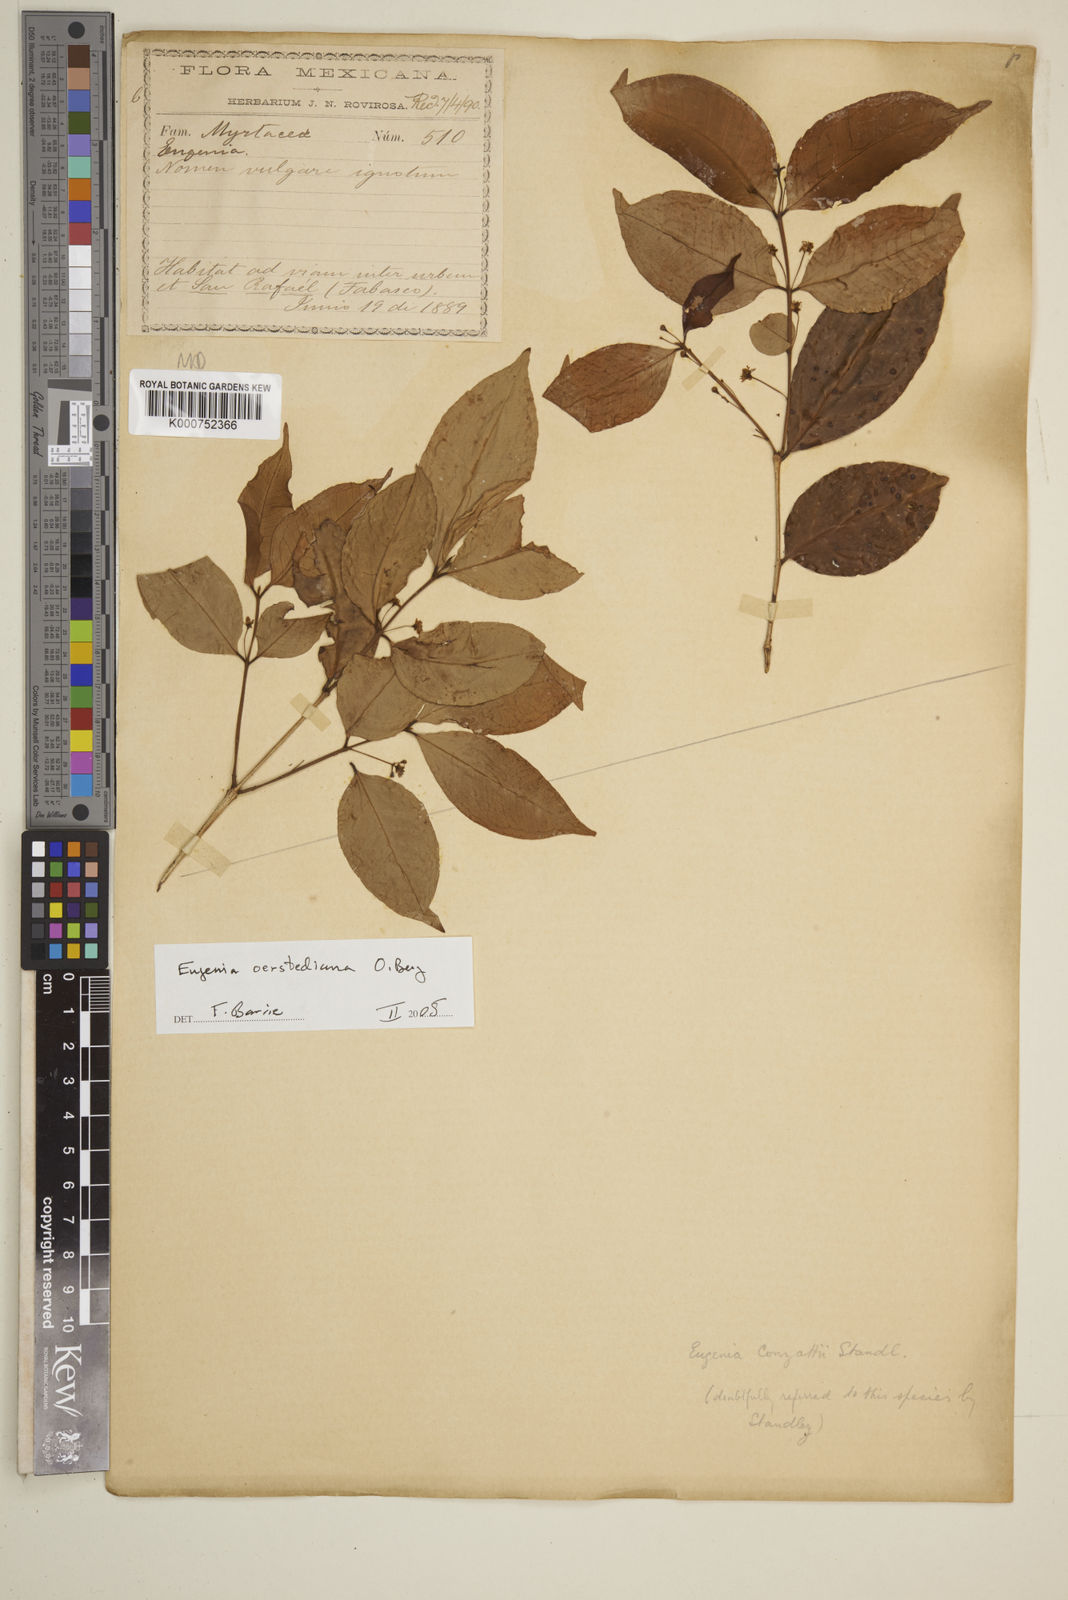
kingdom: Plantae
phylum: Tracheophyta
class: Magnoliopsida
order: Myrtales
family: Myrtaceae
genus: Eugenia
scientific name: Eugenia oerstediana
